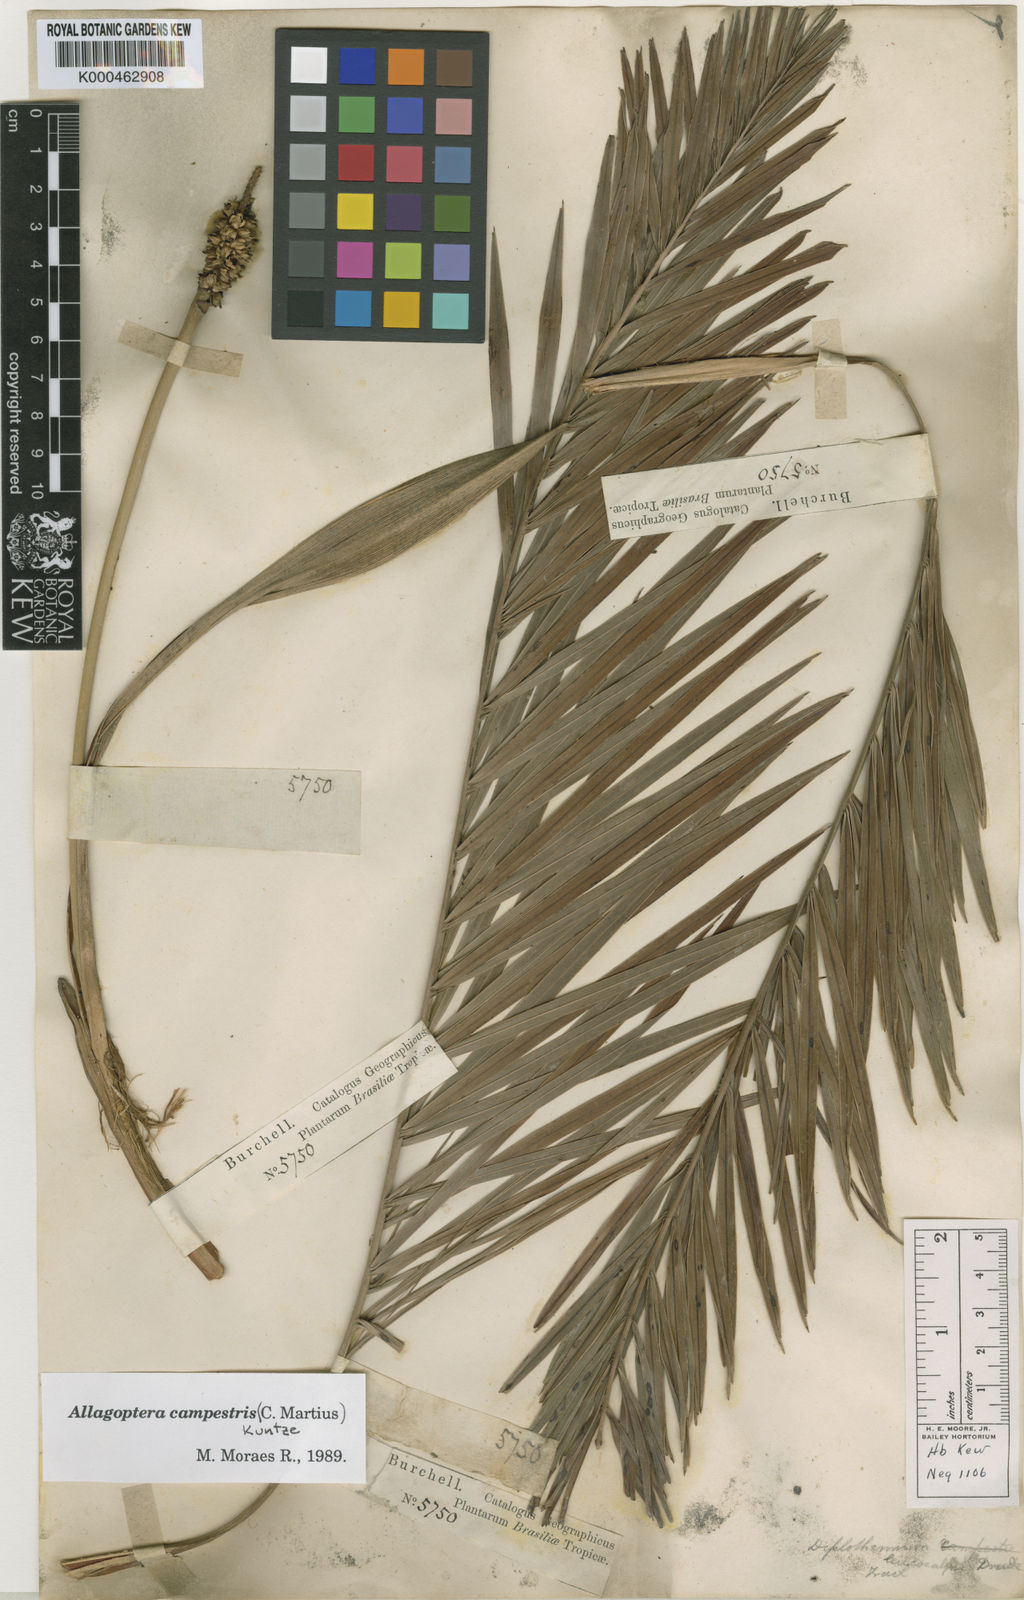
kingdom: Plantae
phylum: Tracheophyta
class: Liliopsida
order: Arecales
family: Arecaceae
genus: Allagoptera
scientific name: Allagoptera campestris
